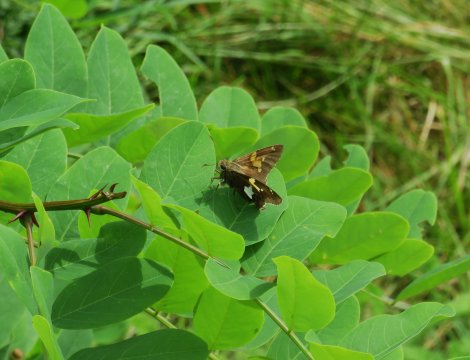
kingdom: Animalia
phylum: Arthropoda
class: Insecta
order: Lepidoptera
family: Hesperiidae
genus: Epargyreus
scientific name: Epargyreus clarus
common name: Silver-spotted Skipper
